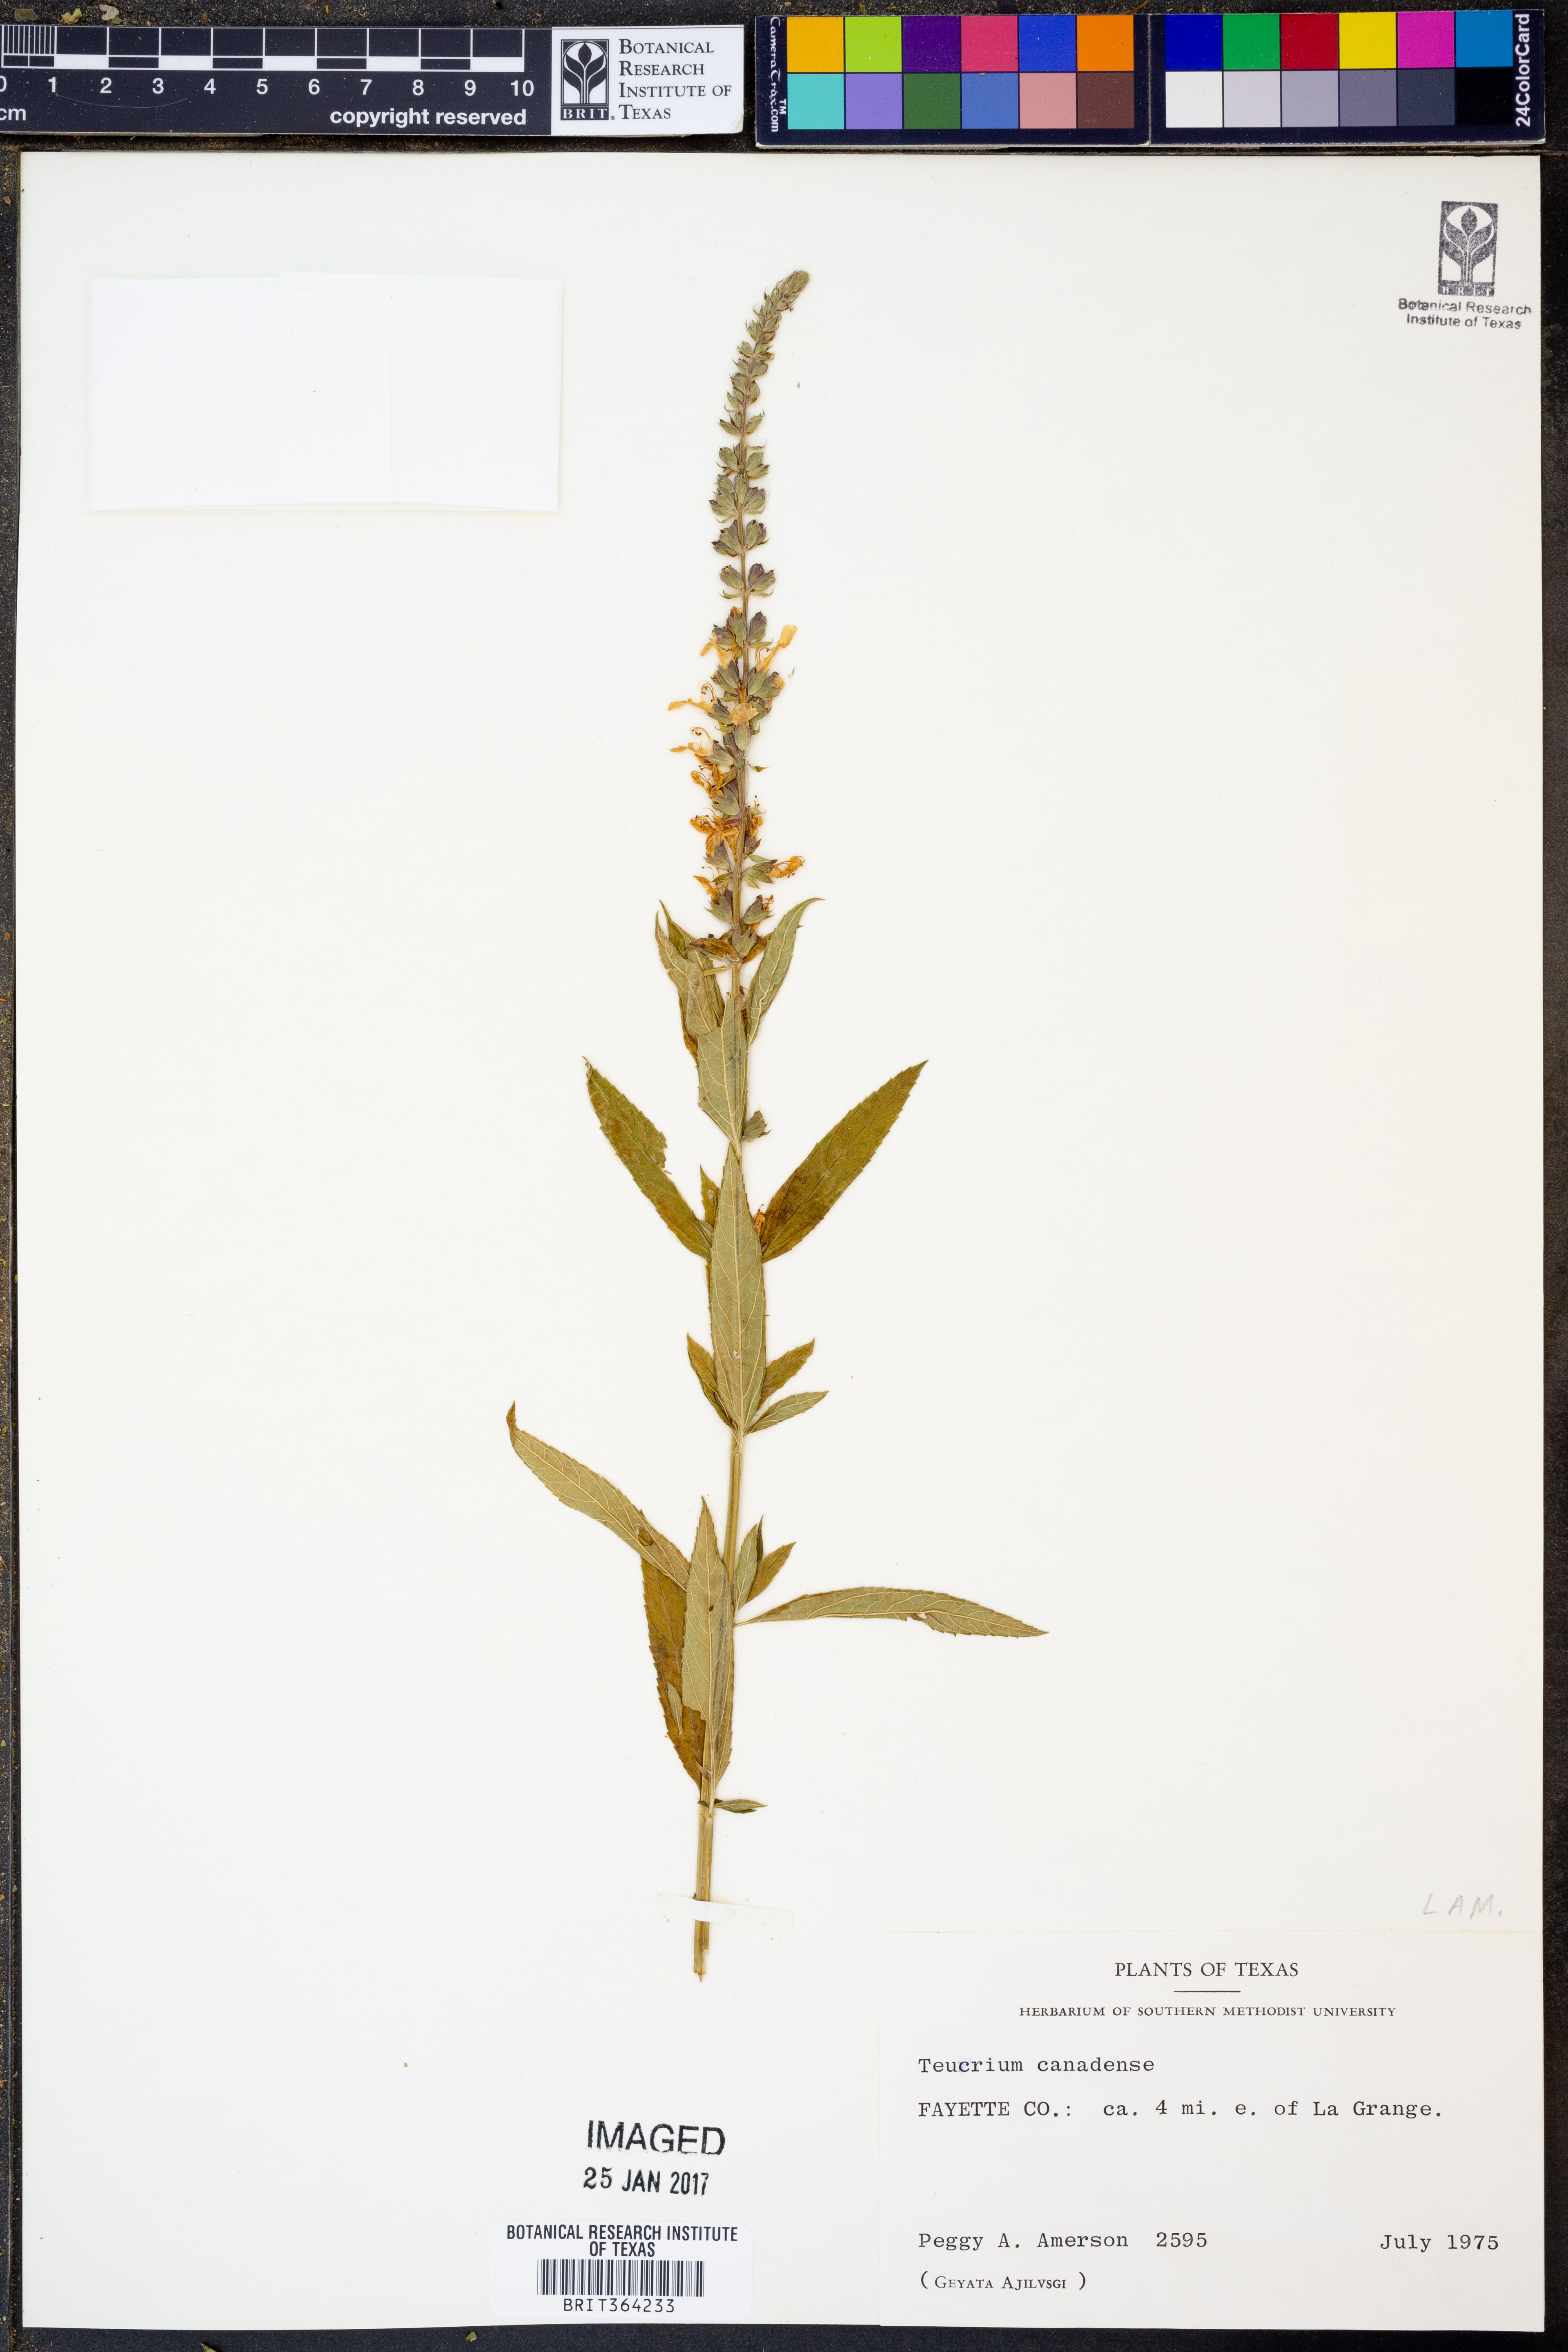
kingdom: Plantae
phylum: Tracheophyta
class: Magnoliopsida
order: Lamiales
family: Lamiaceae
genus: Teucrium
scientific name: Teucrium canadense
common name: American germander
